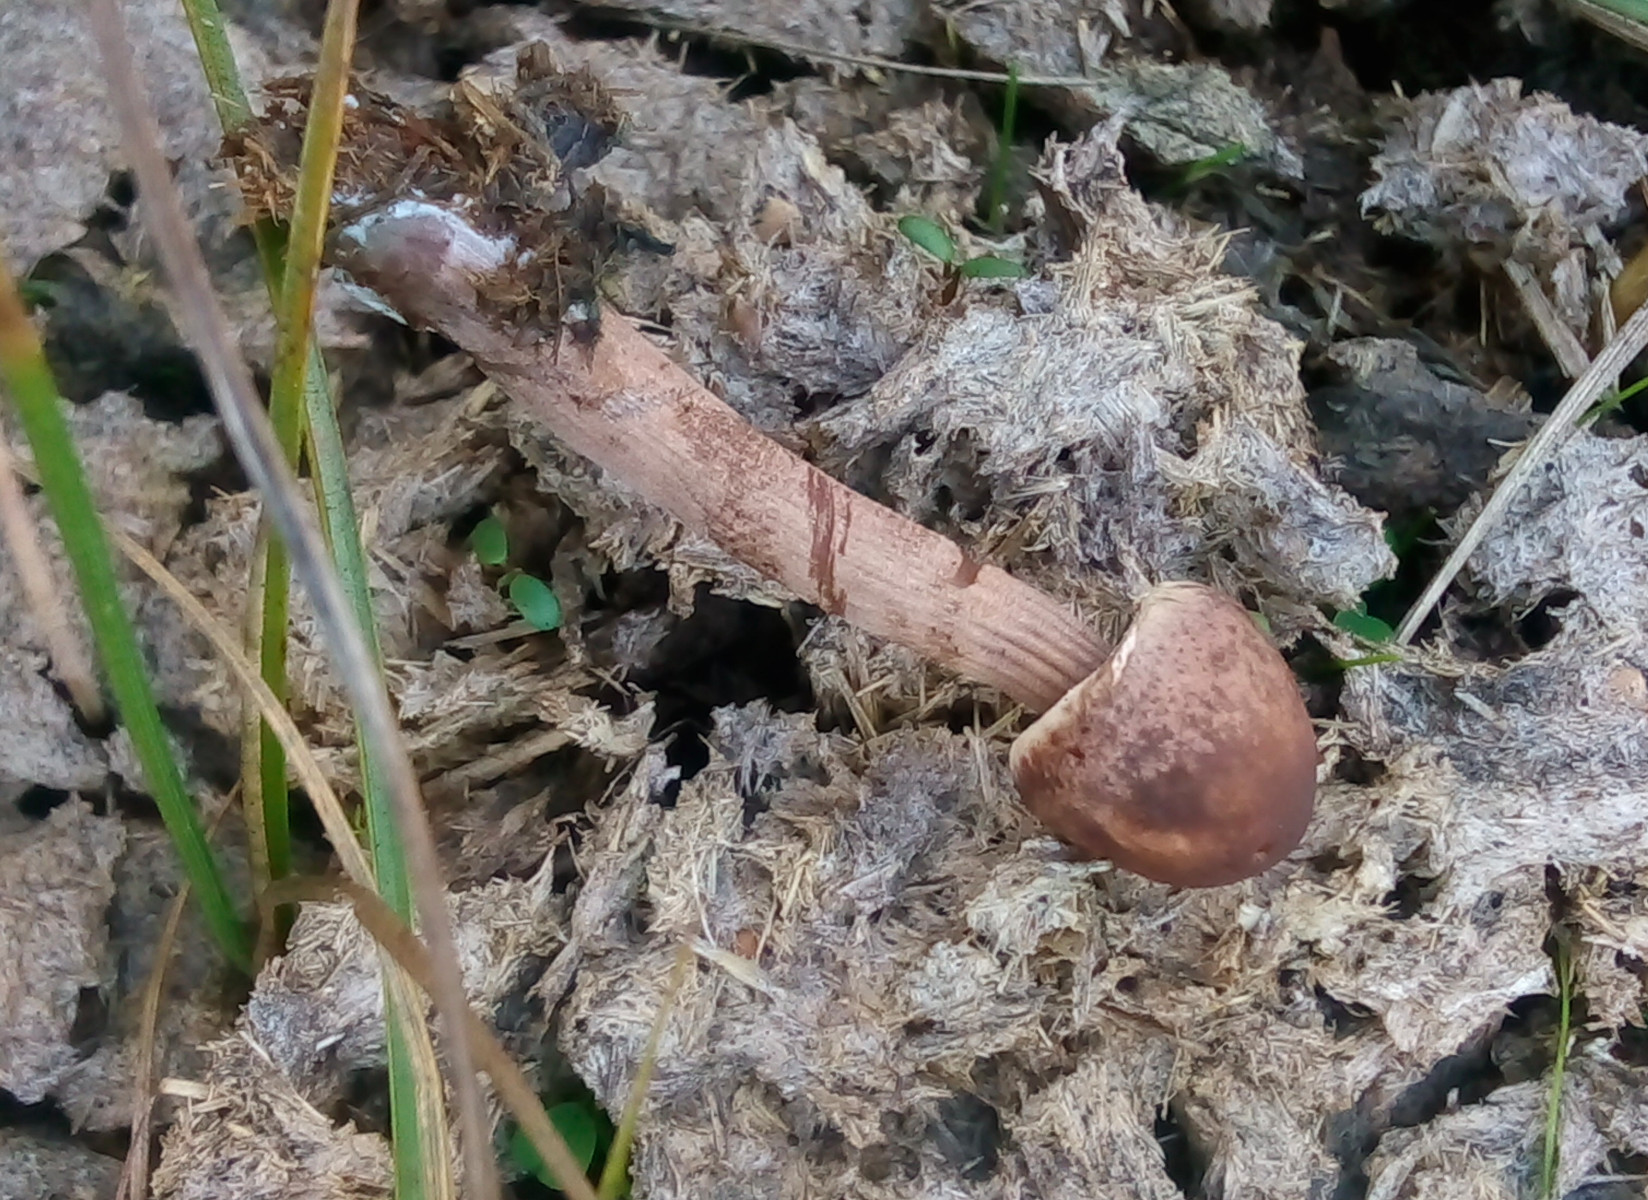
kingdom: Fungi
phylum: Basidiomycota
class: Agaricomycetes
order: Agaricales
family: Bolbitiaceae
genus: Panaeolus
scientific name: Panaeolus
